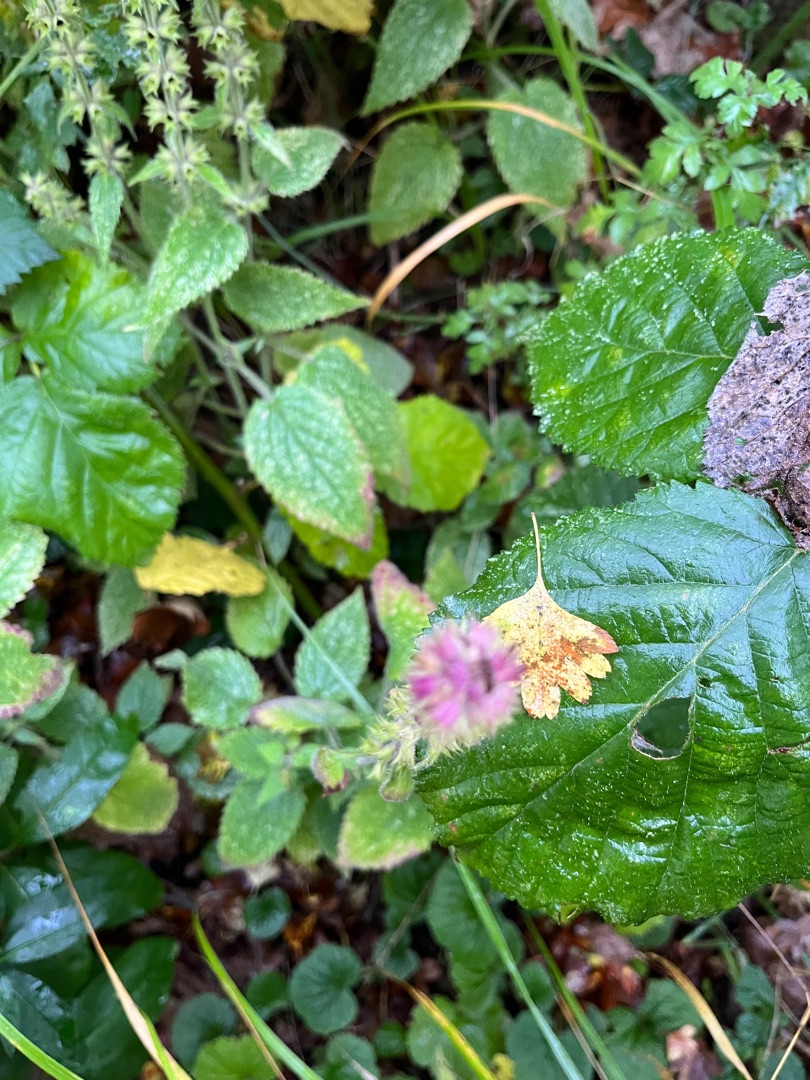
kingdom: Plantae
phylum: Tracheophyta
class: Magnoliopsida
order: Lamiales
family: Lamiaceae
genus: Stachys
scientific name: Stachys sylvatica
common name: Skov-galtetand
